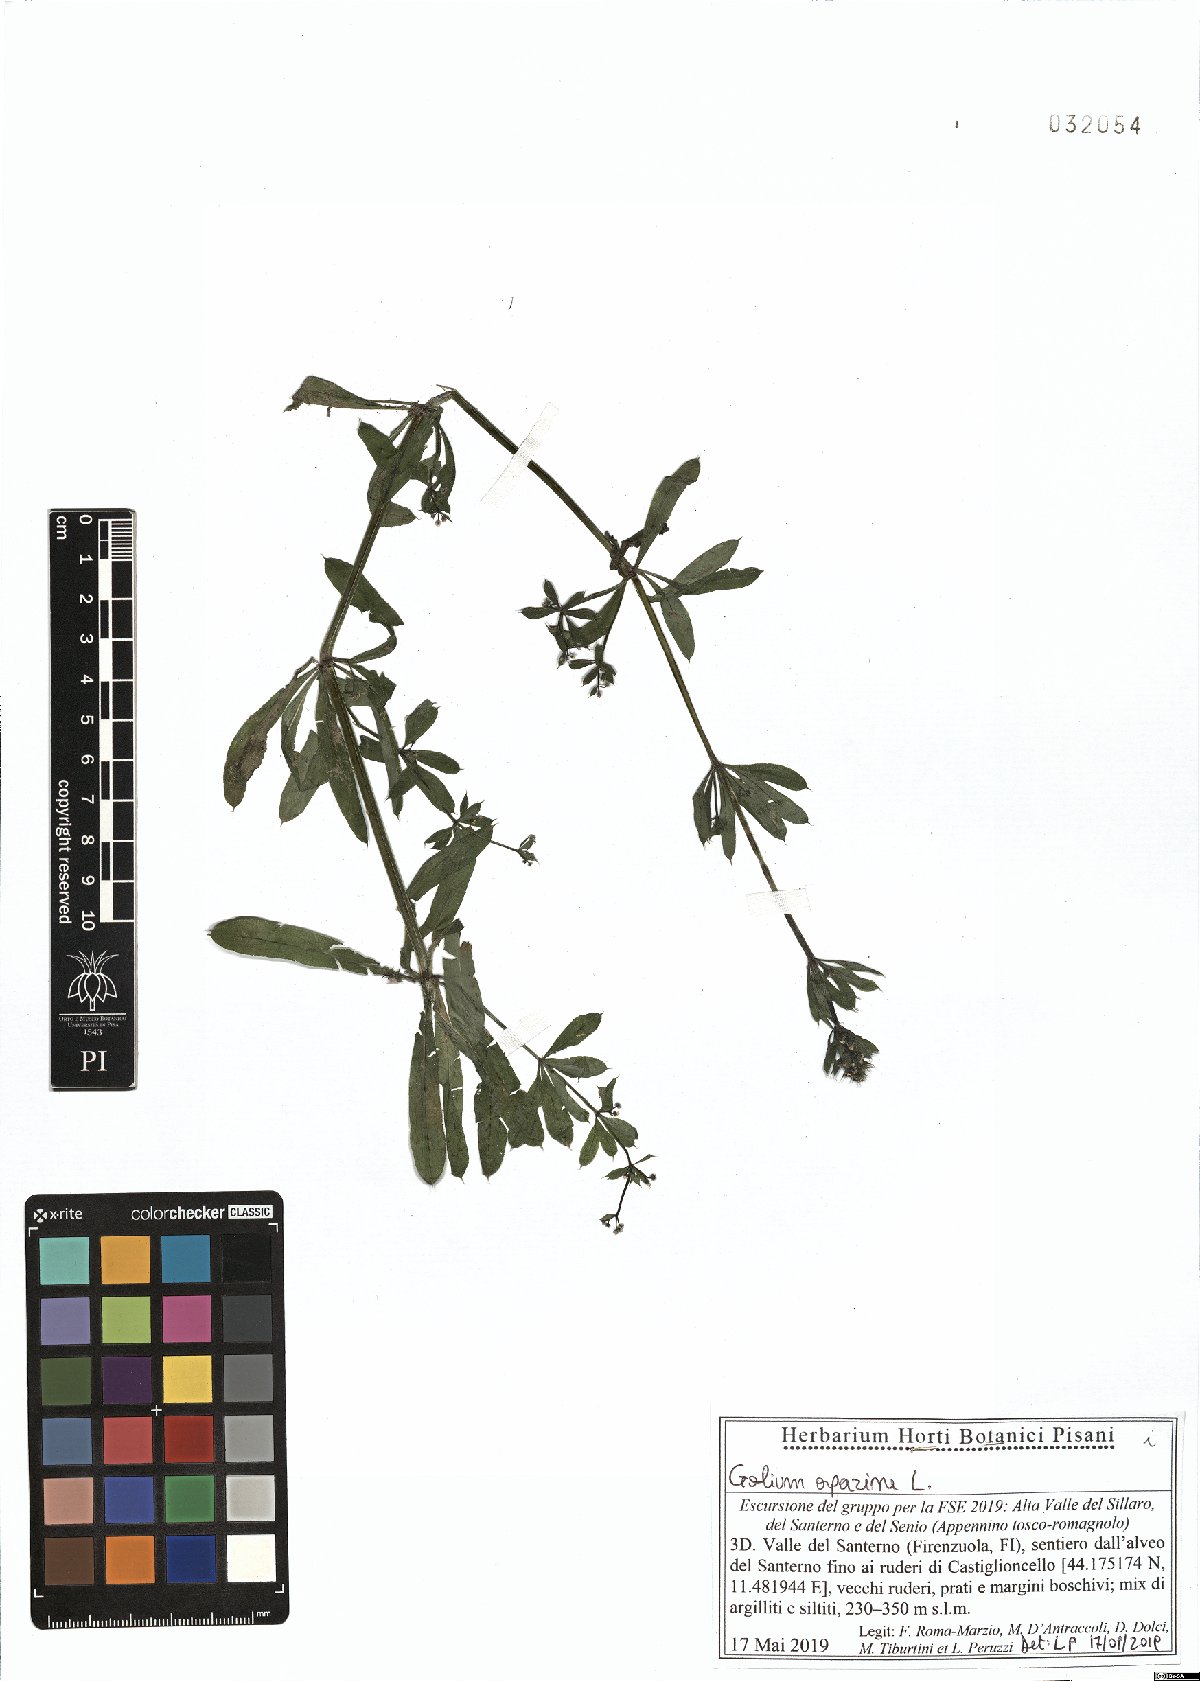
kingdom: Plantae
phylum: Tracheophyta
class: Magnoliopsida
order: Gentianales
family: Rubiaceae
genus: Galium
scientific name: Galium aparine
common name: Cleavers
